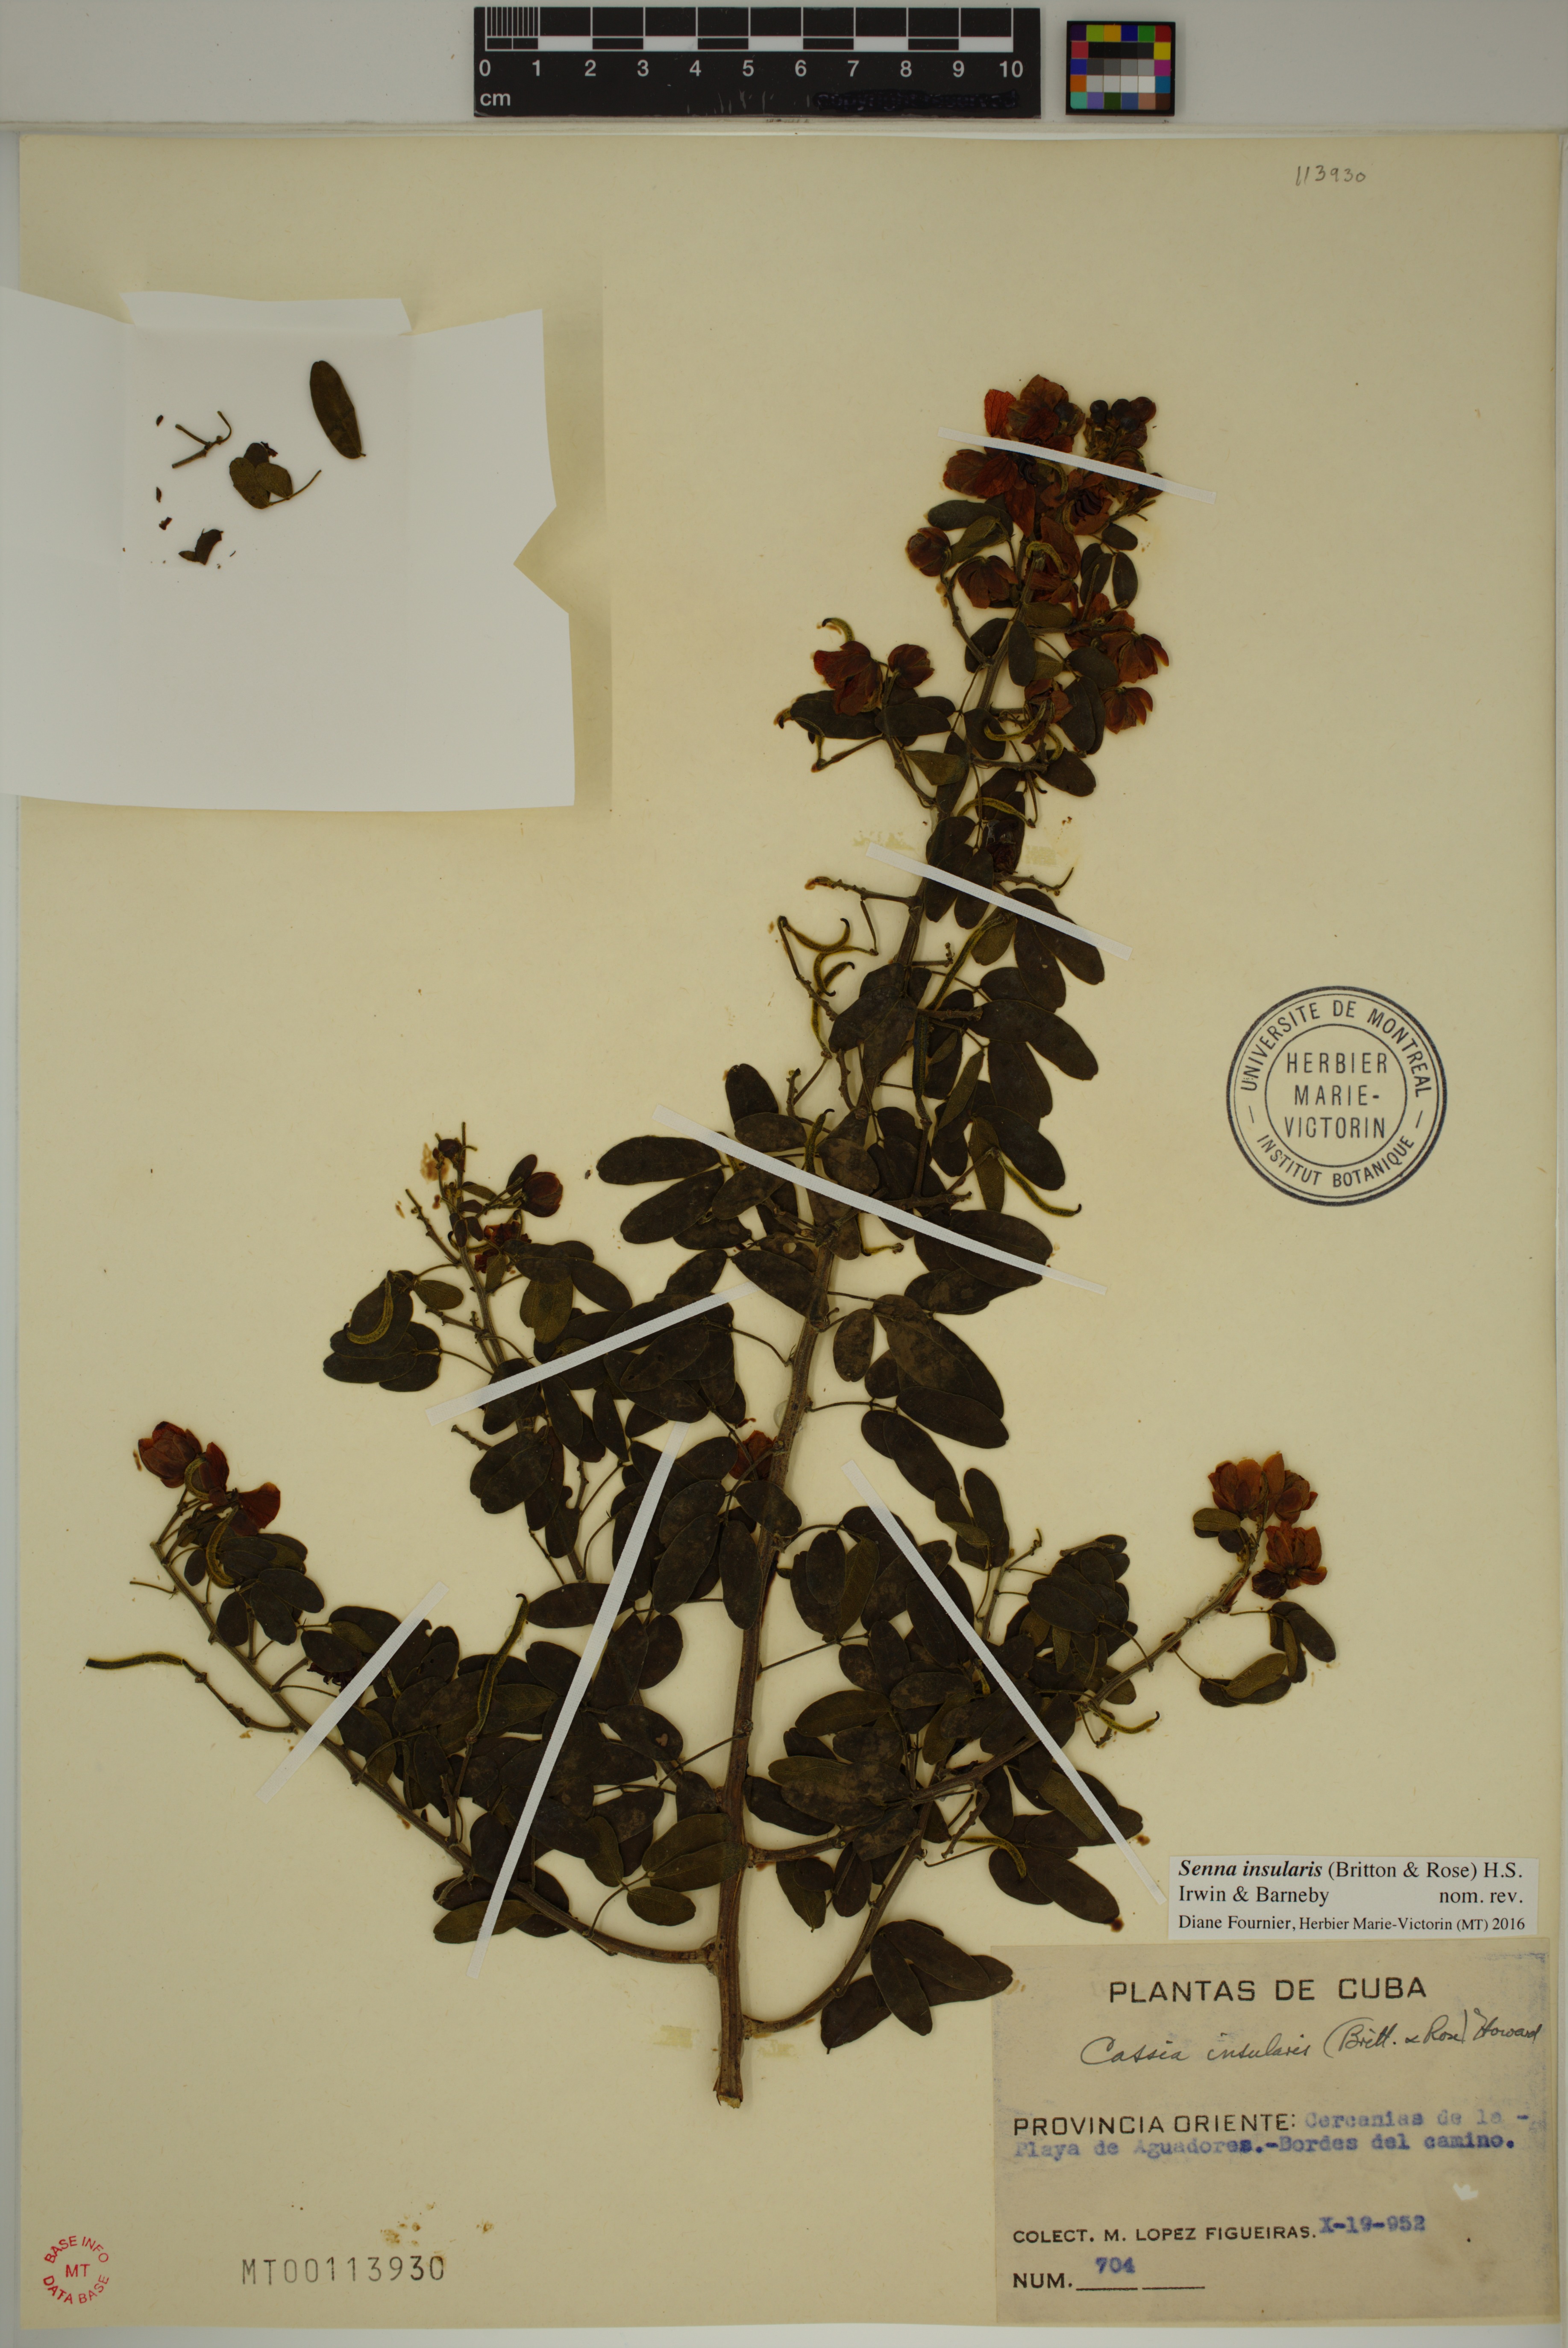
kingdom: Plantae
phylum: Tracheophyta
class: Magnoliopsida
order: Fabales
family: Fabaceae
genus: Senna
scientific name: Senna insularis
